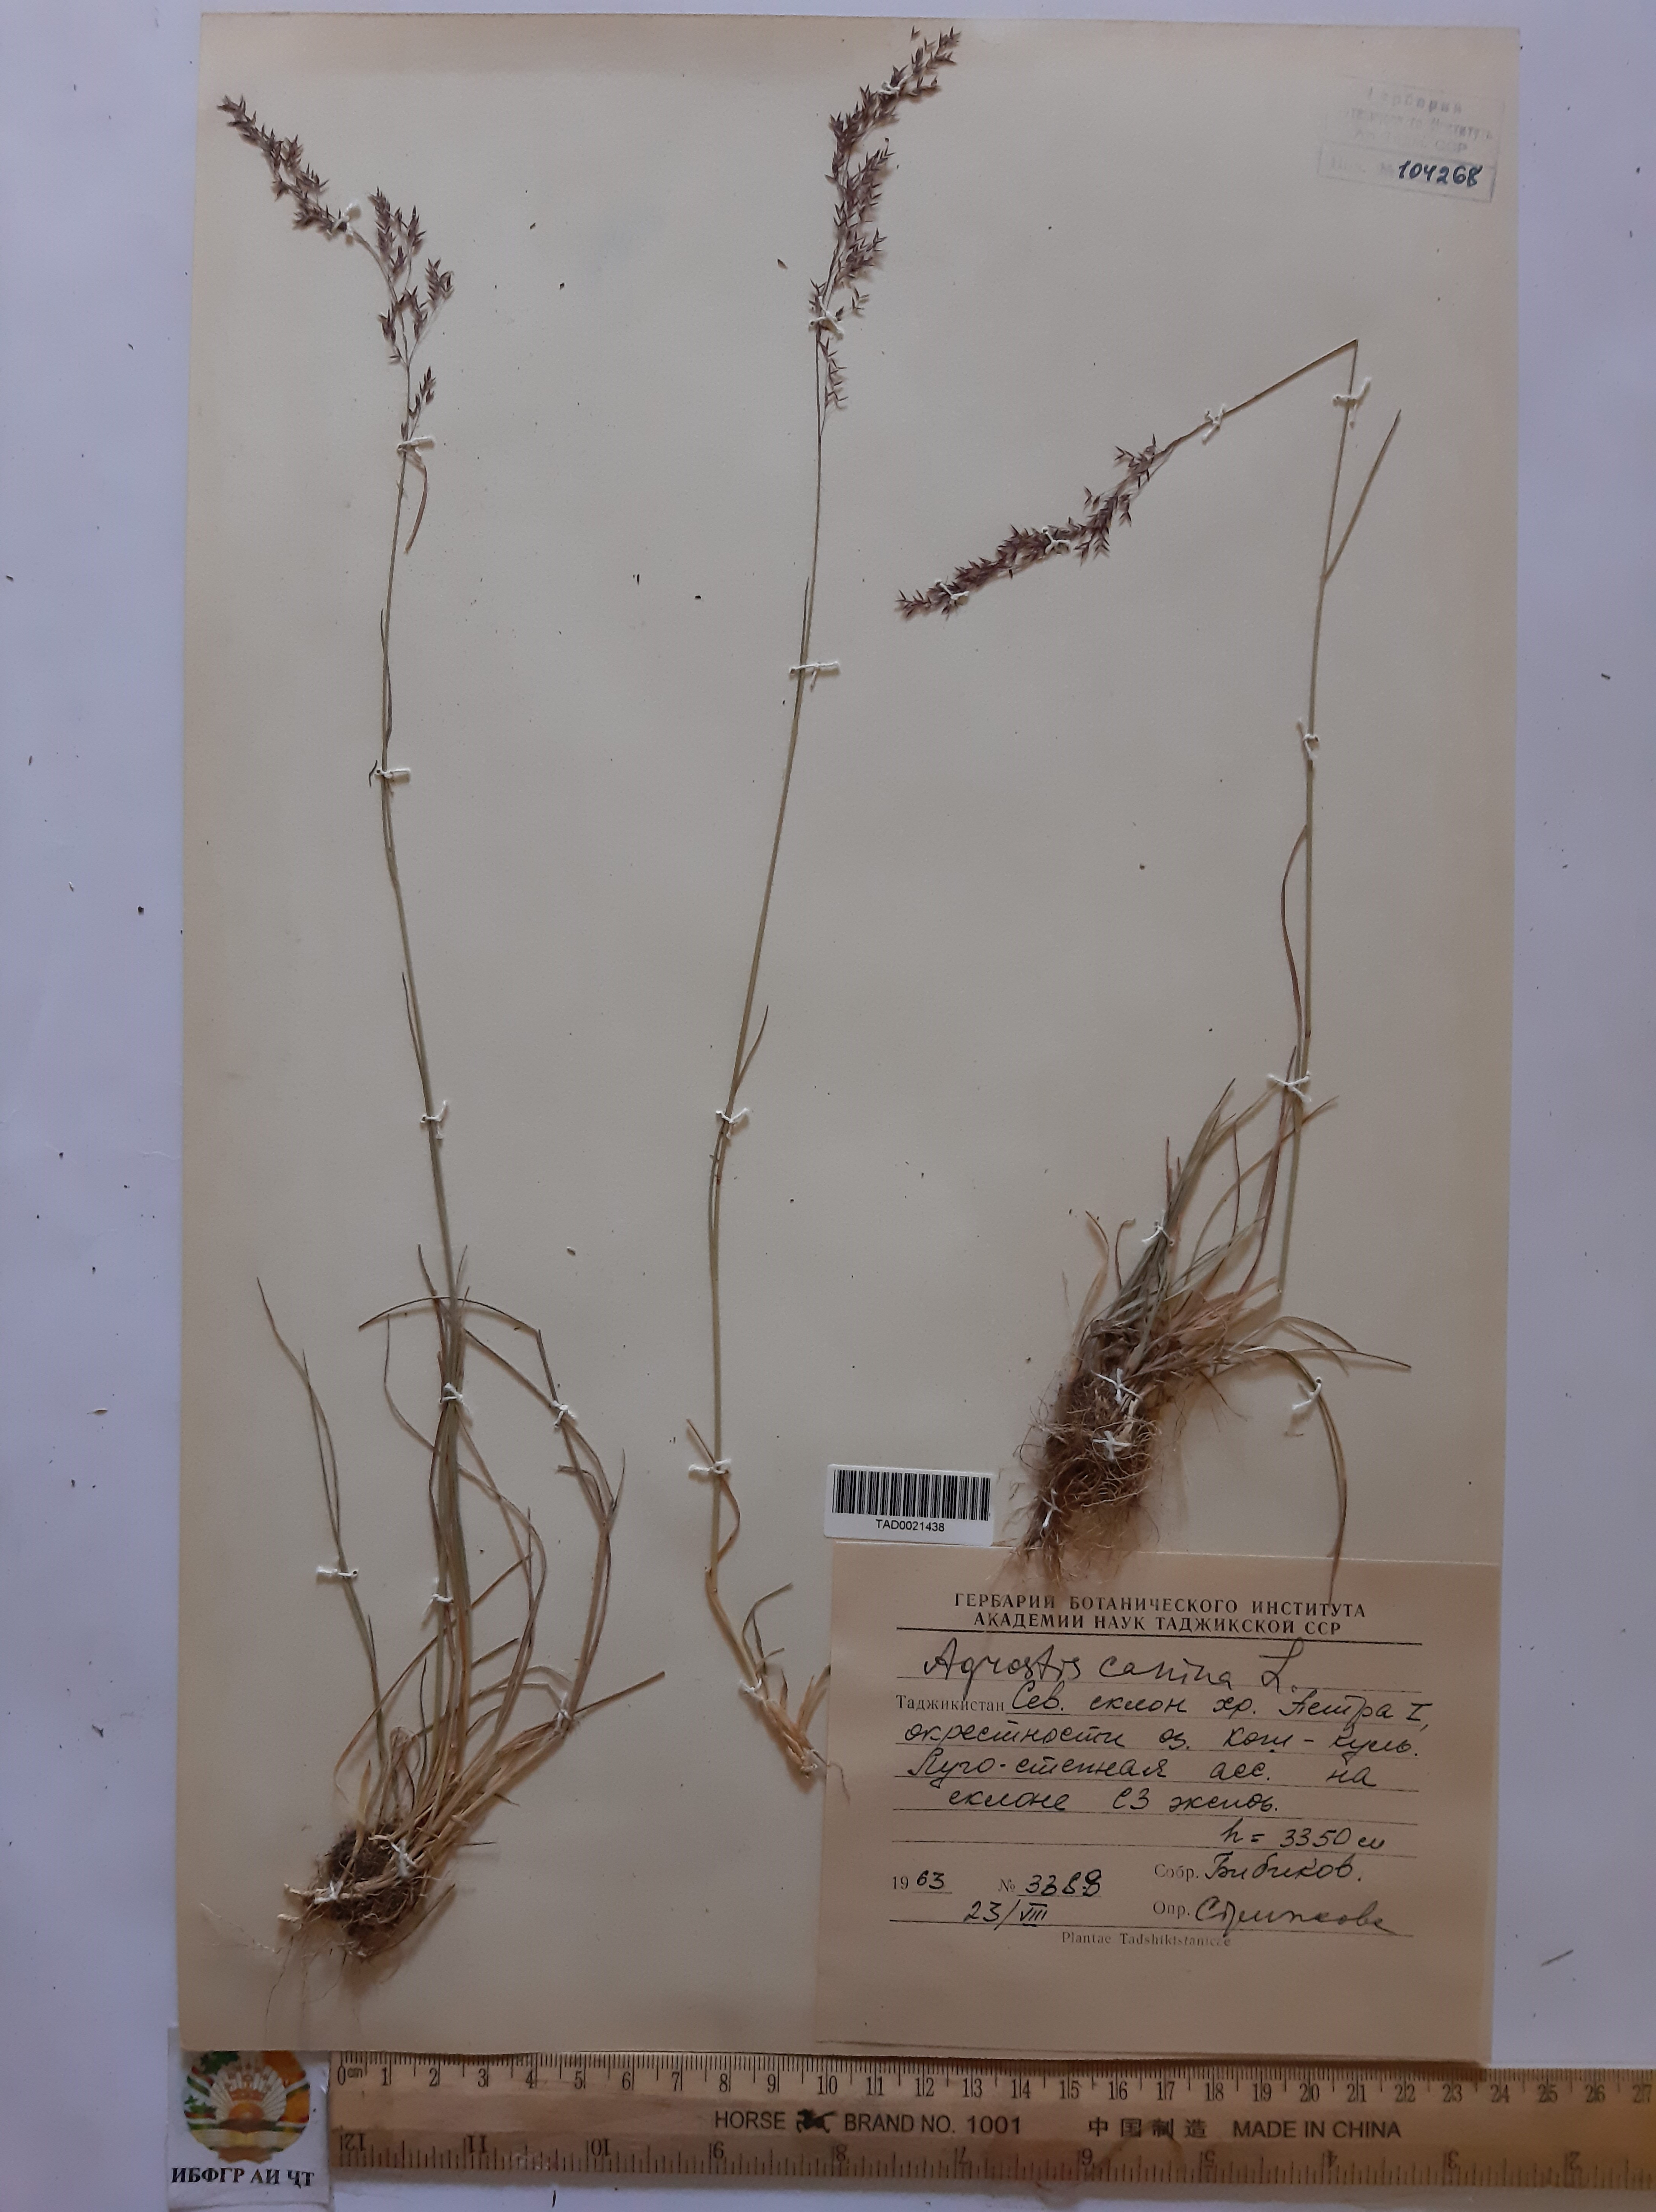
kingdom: Plantae
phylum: Tracheophyta
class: Liliopsida
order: Poales
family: Poaceae
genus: Agrostis
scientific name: Agrostis canina
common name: Velvet bent
